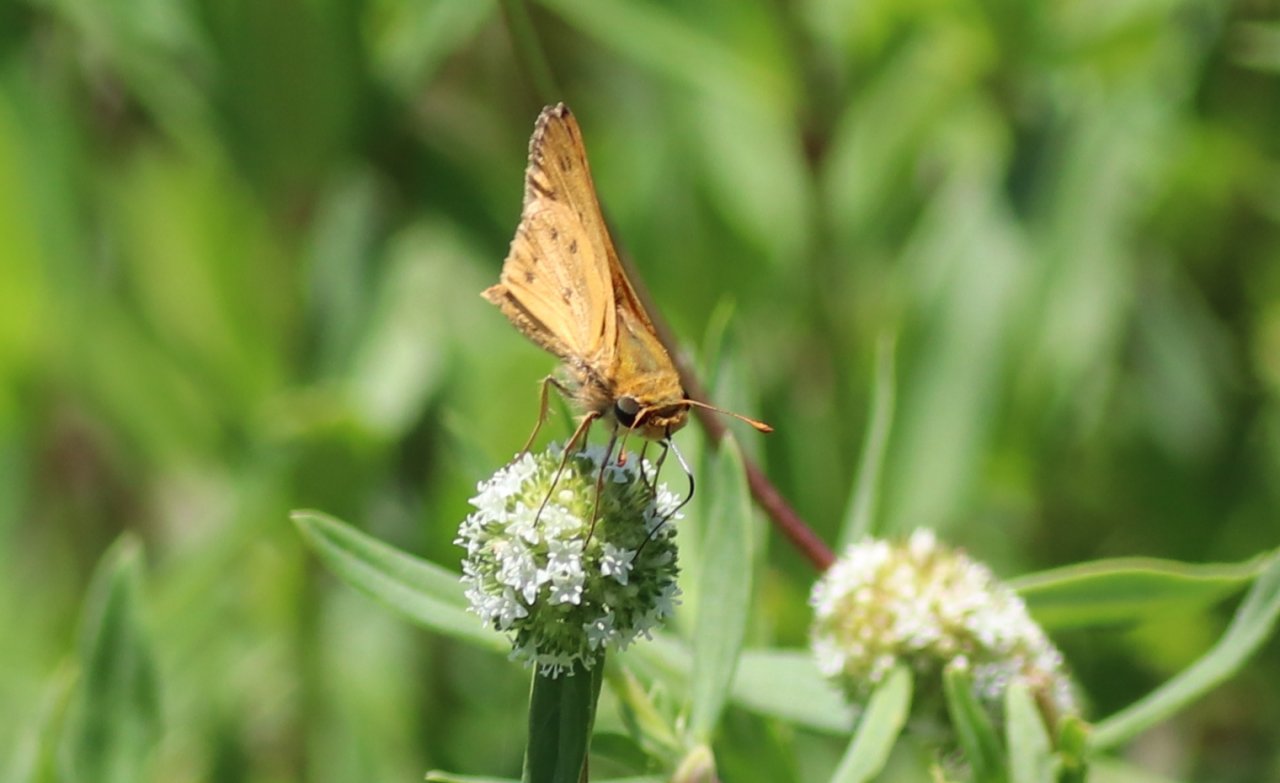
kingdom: Animalia
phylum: Arthropoda
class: Insecta
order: Lepidoptera
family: Hesperiidae
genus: Hylephila
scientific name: Hylephila phyleus
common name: Fiery Skipper
